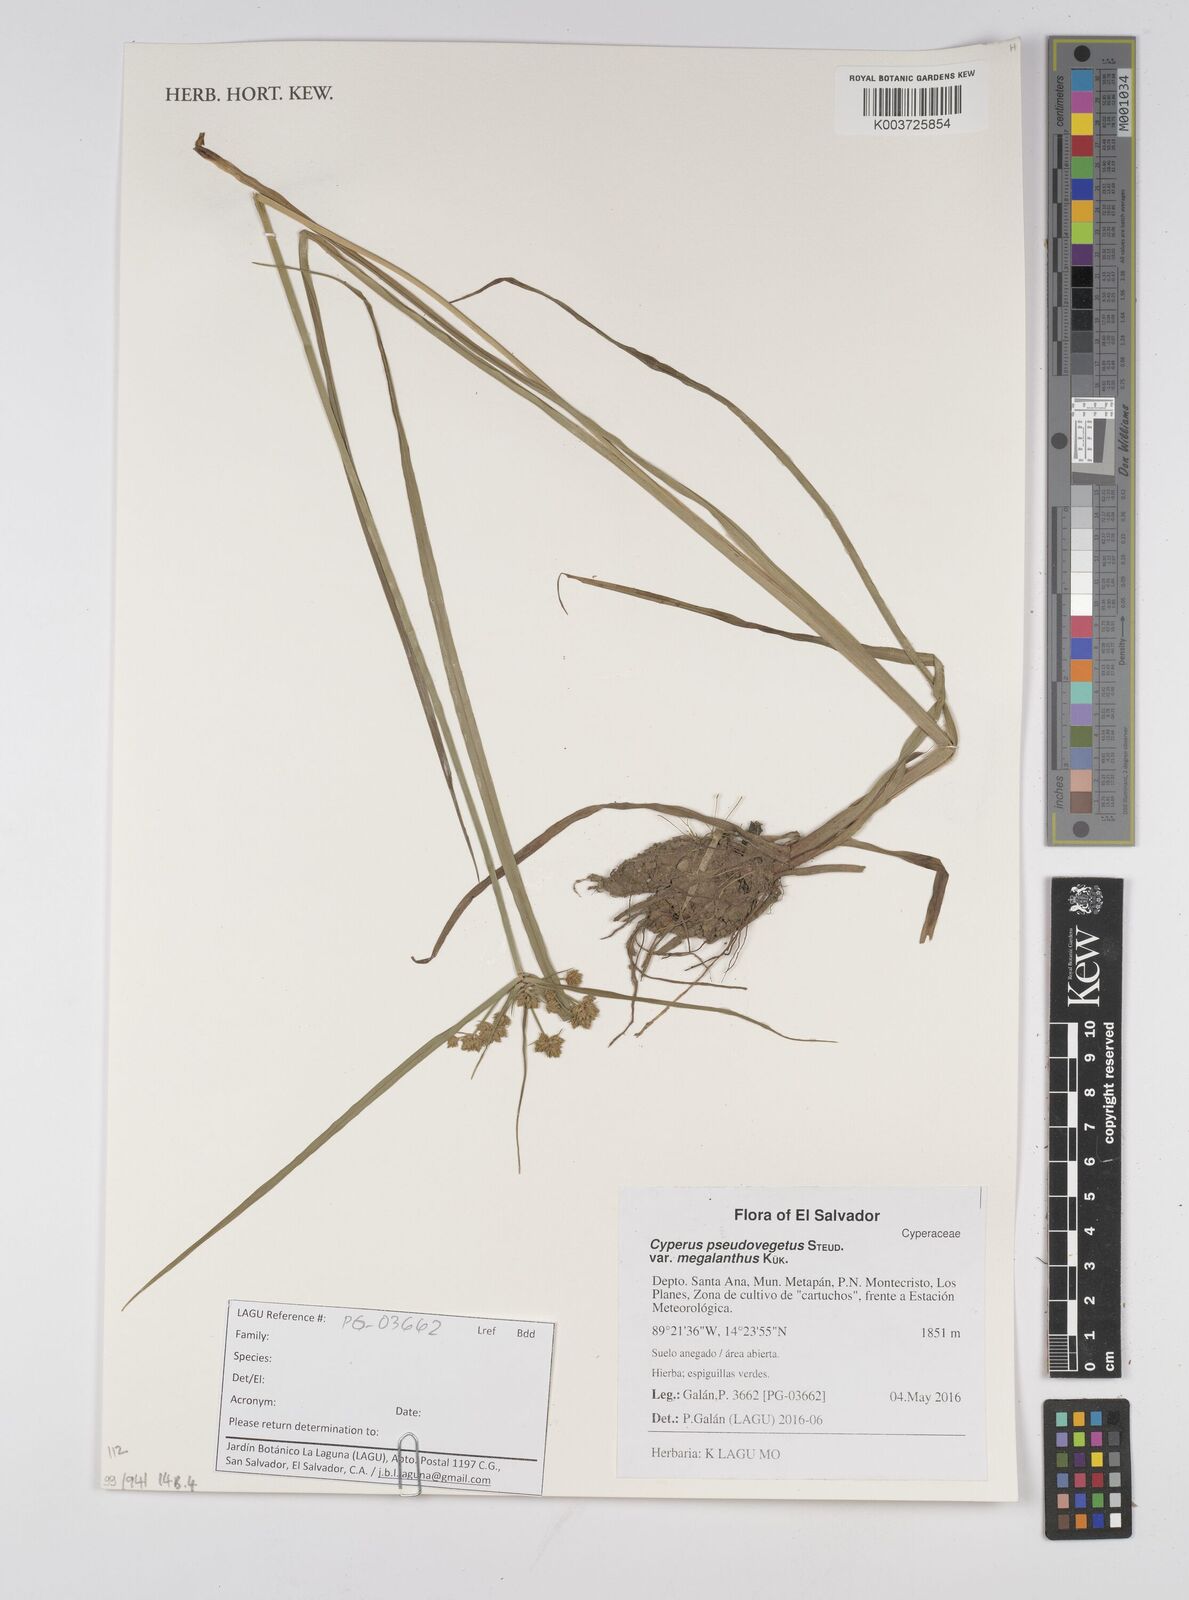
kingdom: Plantae
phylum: Tracheophyta
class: Liliopsida
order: Poales
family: Cyperaceae
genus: Cyperus
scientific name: Cyperus pseudovegetus
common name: Marsh flat sedge
